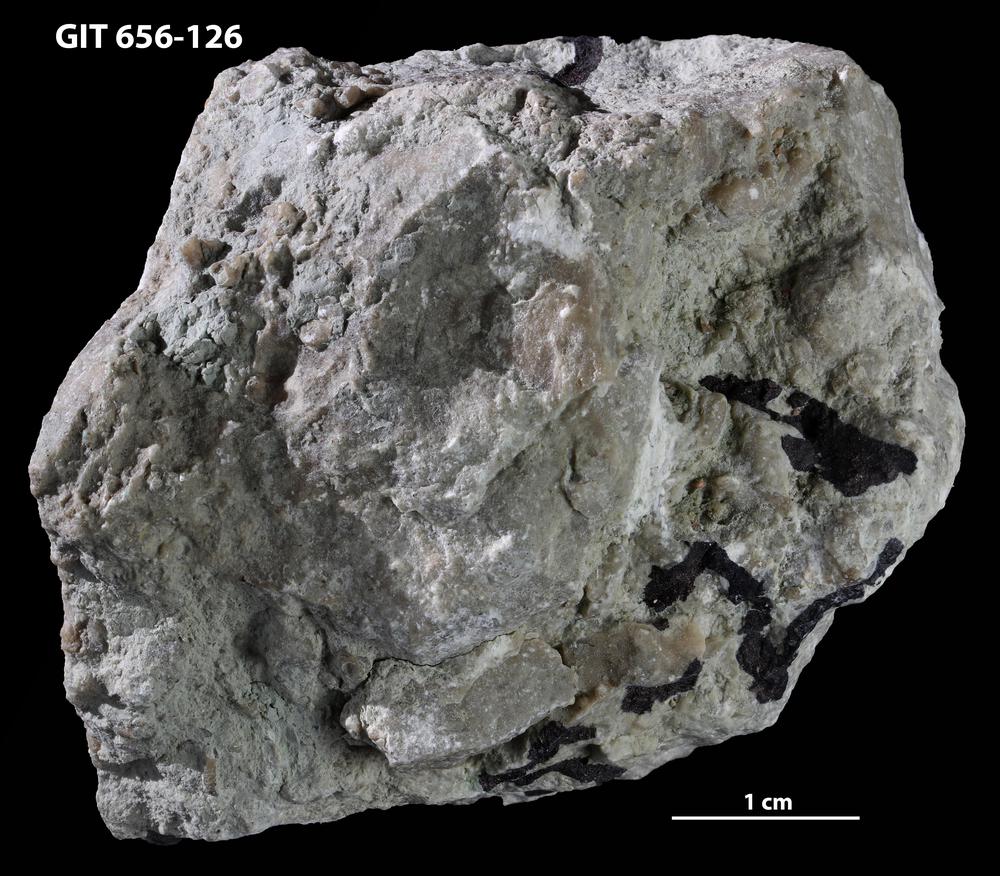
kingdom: Animalia
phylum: Porifera
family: Syringostromellidae
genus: Syringostromella
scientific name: Syringostromella
